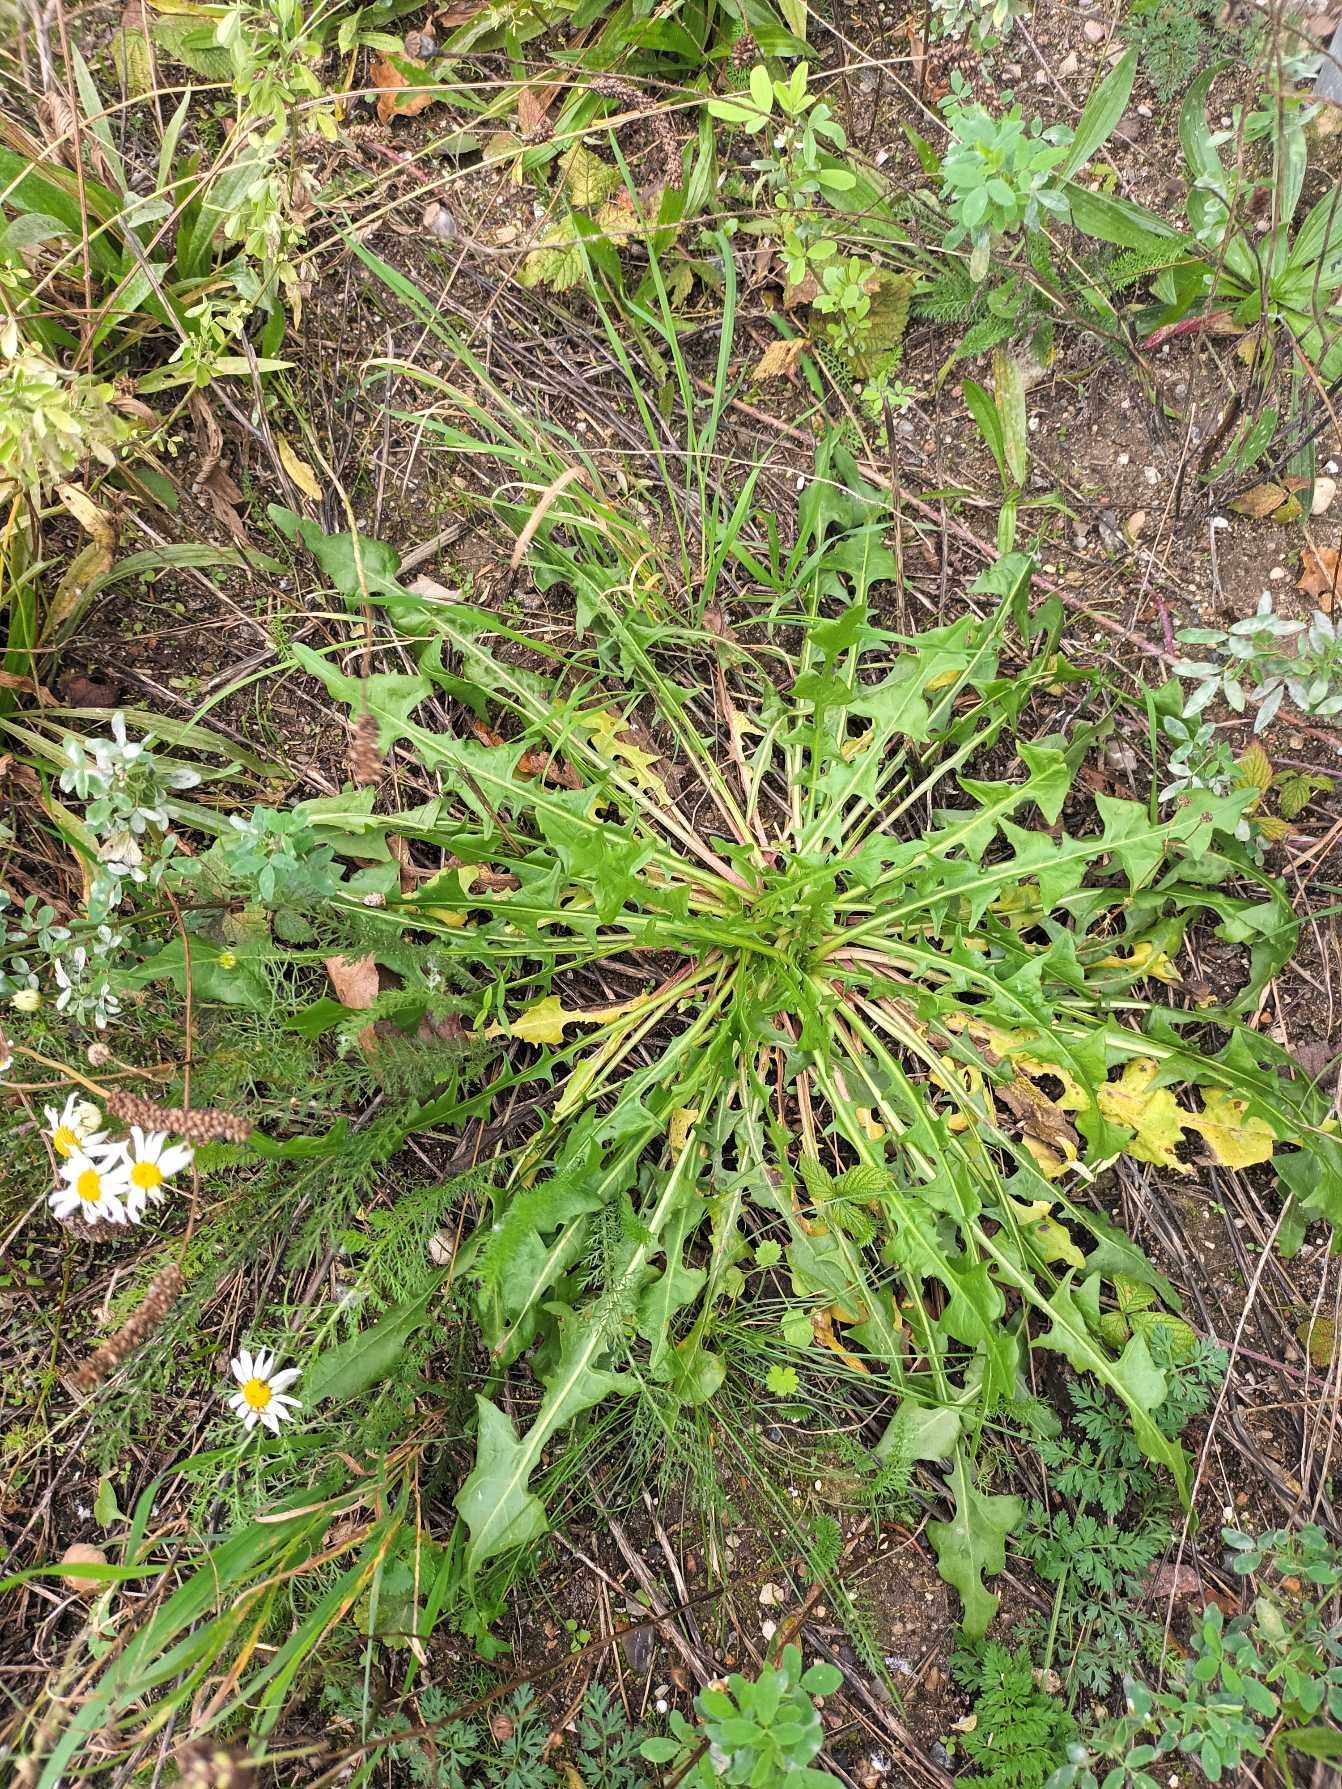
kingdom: Plantae
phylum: Tracheophyta
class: Magnoliopsida
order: Asterales
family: Asteraceae
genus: Taraxacum
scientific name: Taraxacum
